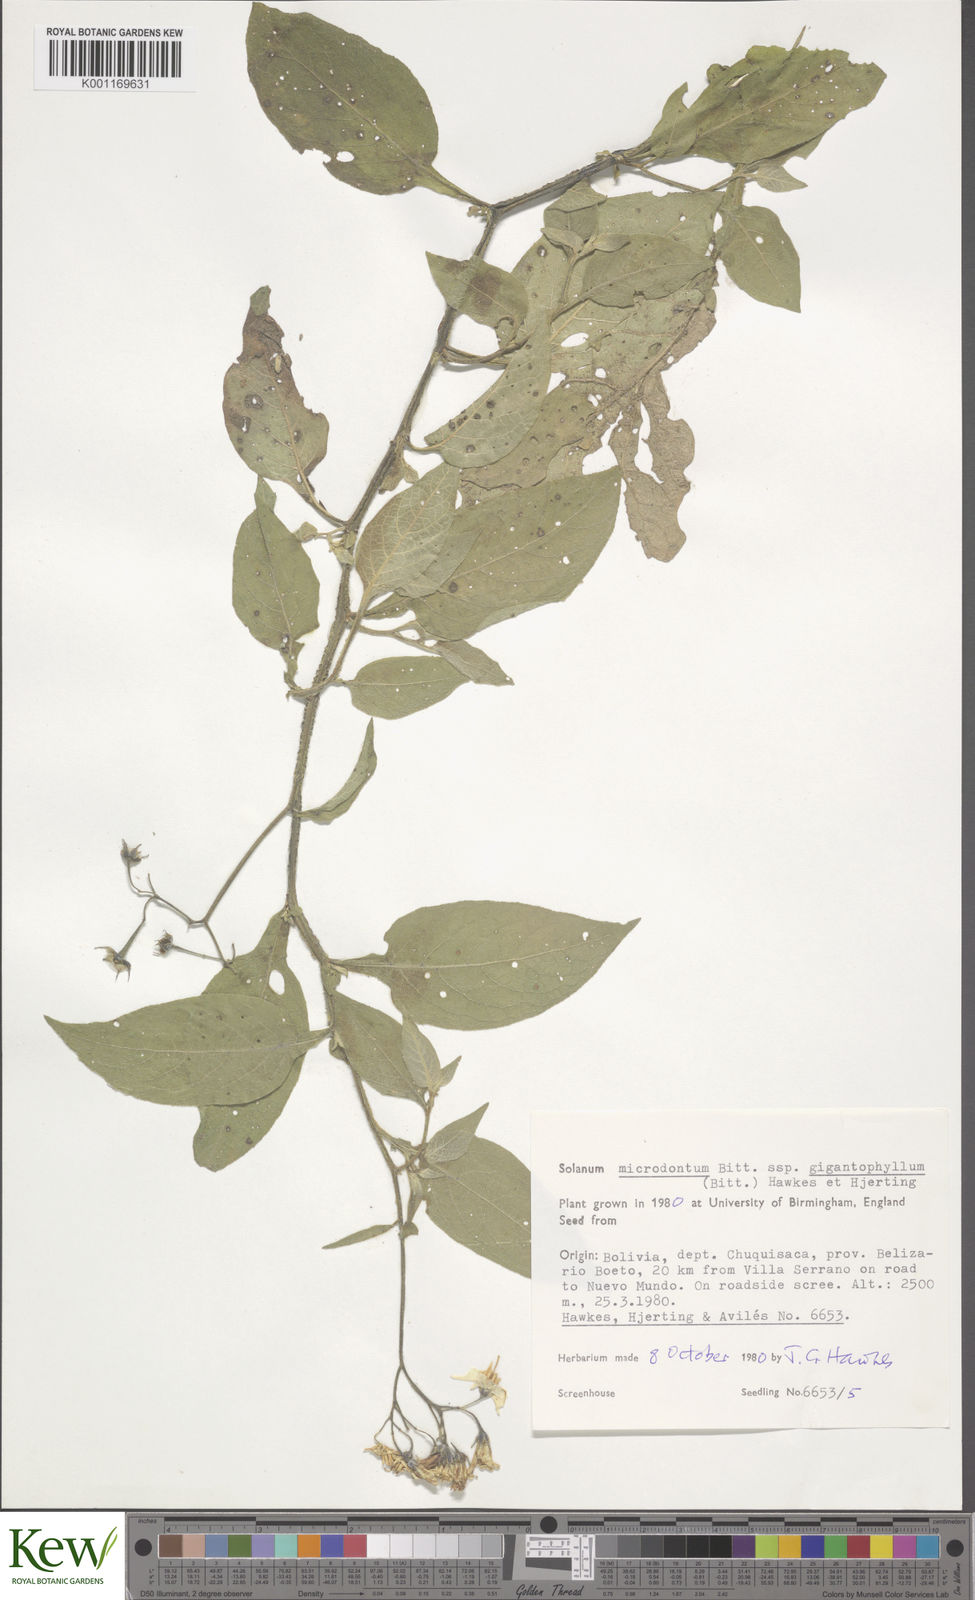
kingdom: Plantae
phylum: Tracheophyta
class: Magnoliopsida
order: Solanales
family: Solanaceae
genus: Solanum
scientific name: Solanum microdontum
